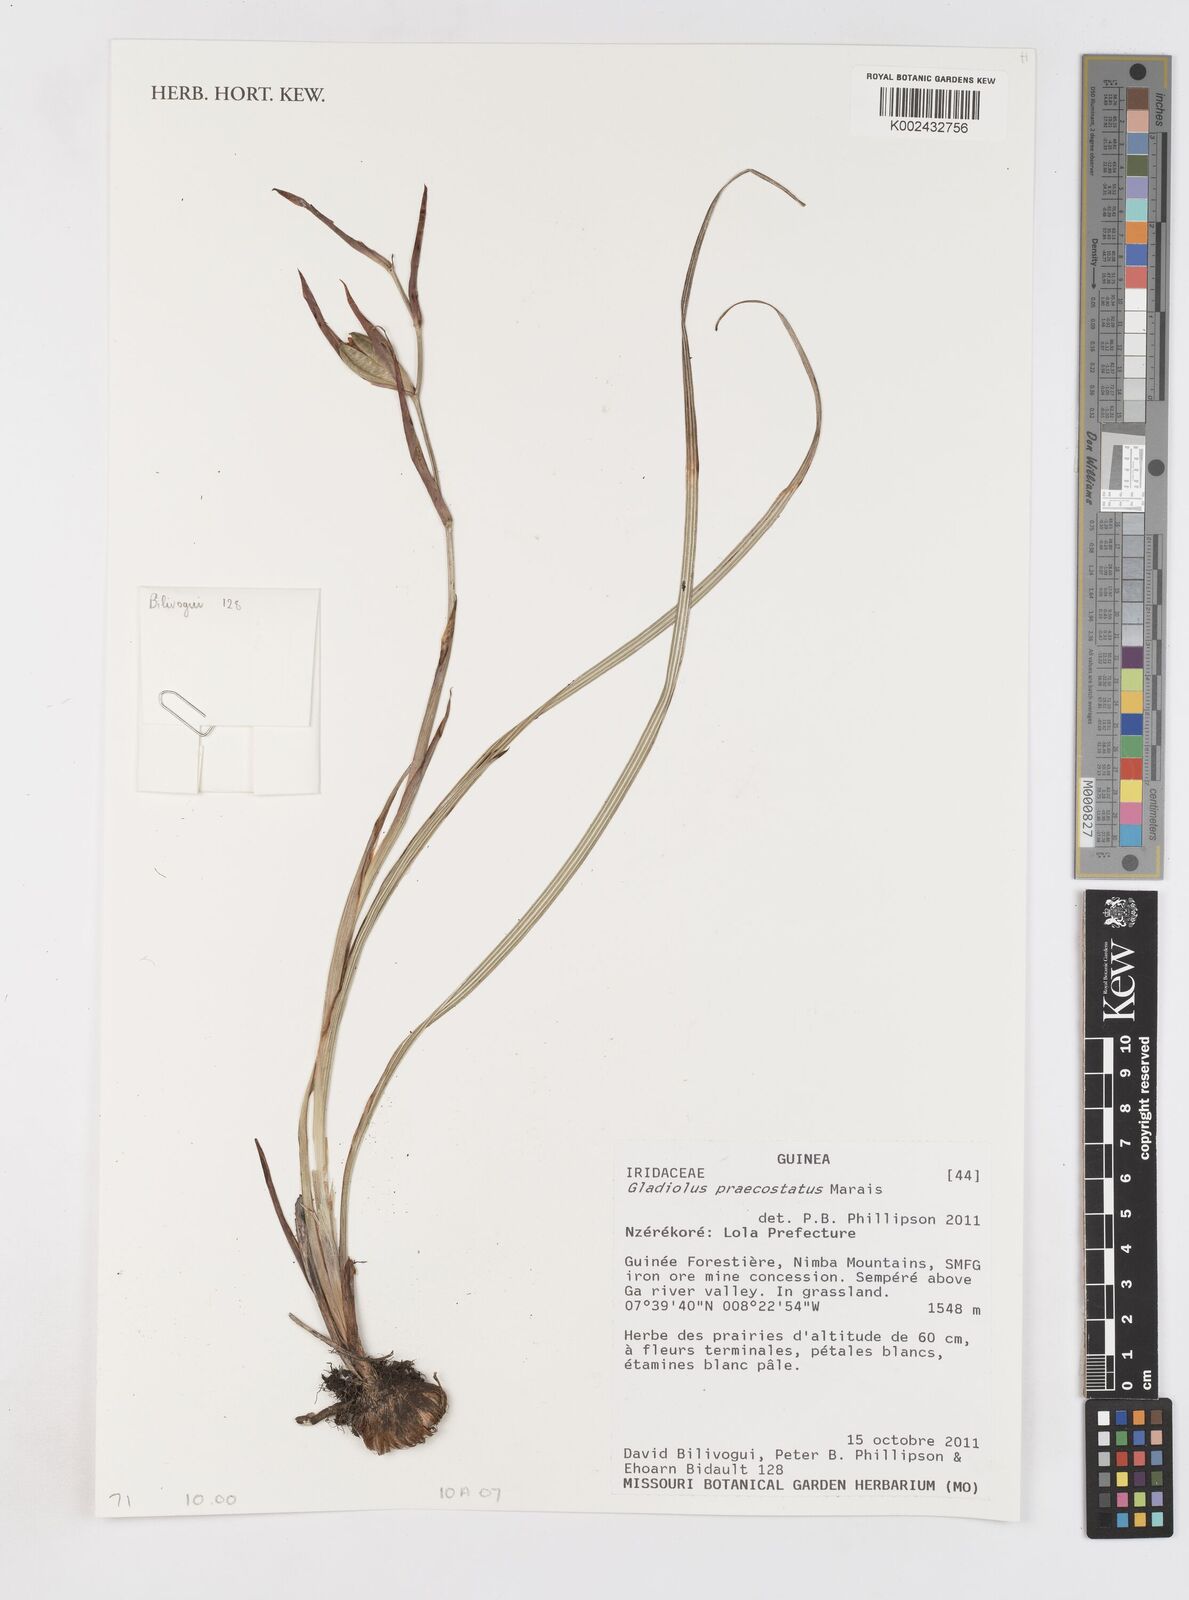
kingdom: Plantae
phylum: Tracheophyta
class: Liliopsida
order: Asparagales
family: Iridaceae
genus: Gladiolus
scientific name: Gladiolus praecostatus
